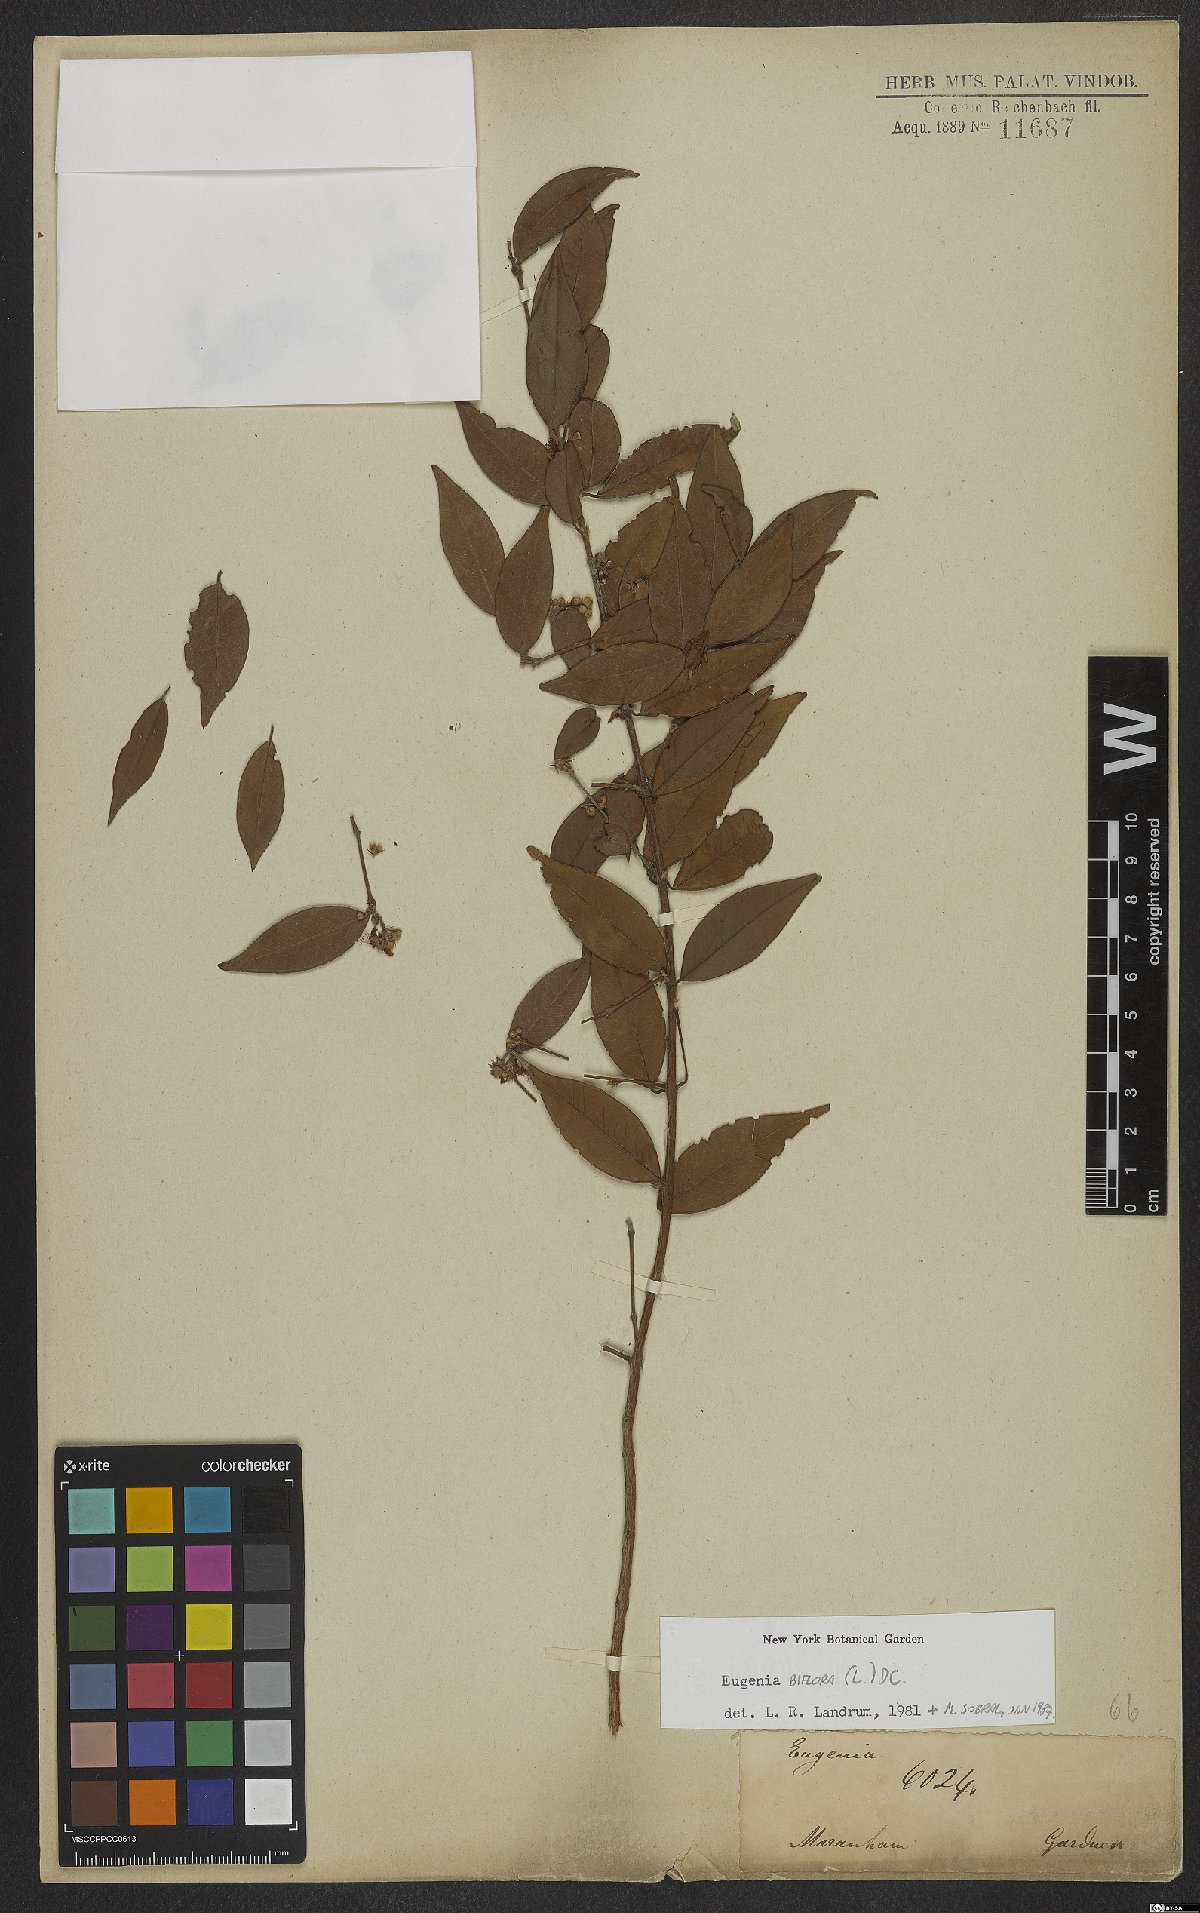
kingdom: Plantae
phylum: Tracheophyta
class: Magnoliopsida
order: Myrtales
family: Myrtaceae
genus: Eugenia
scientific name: Eugenia warmingiana
